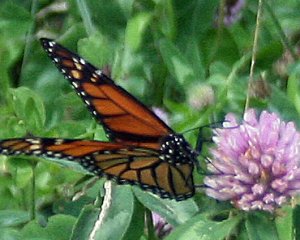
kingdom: Animalia
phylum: Arthropoda
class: Insecta
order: Lepidoptera
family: Nymphalidae
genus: Danaus
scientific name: Danaus plexippus
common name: Monarch
